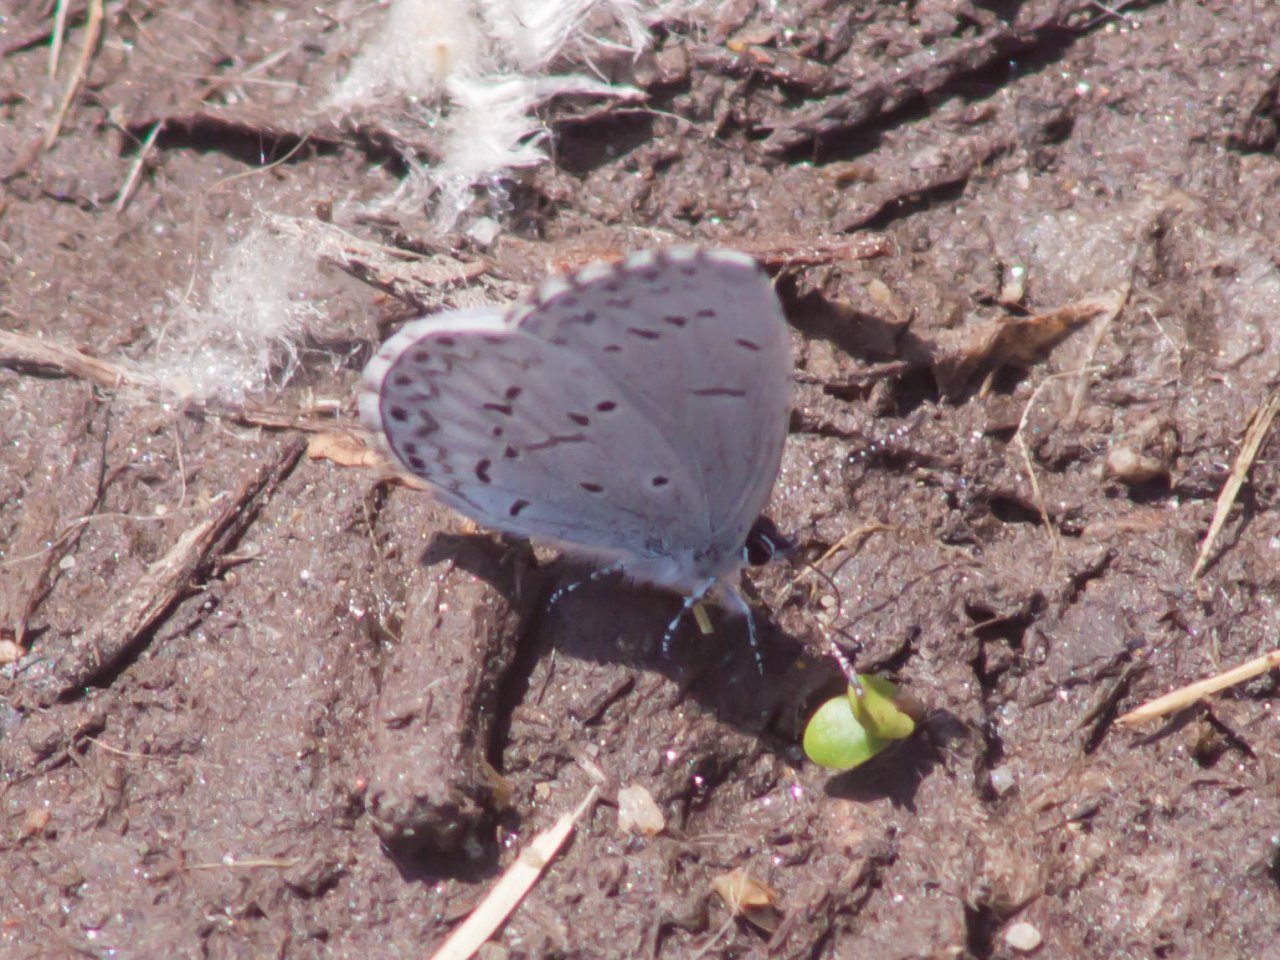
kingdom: Animalia
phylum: Arthropoda
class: Insecta
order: Lepidoptera
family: Lycaenidae
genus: Cyaniris
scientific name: Cyaniris neglecta
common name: Summer Azure
